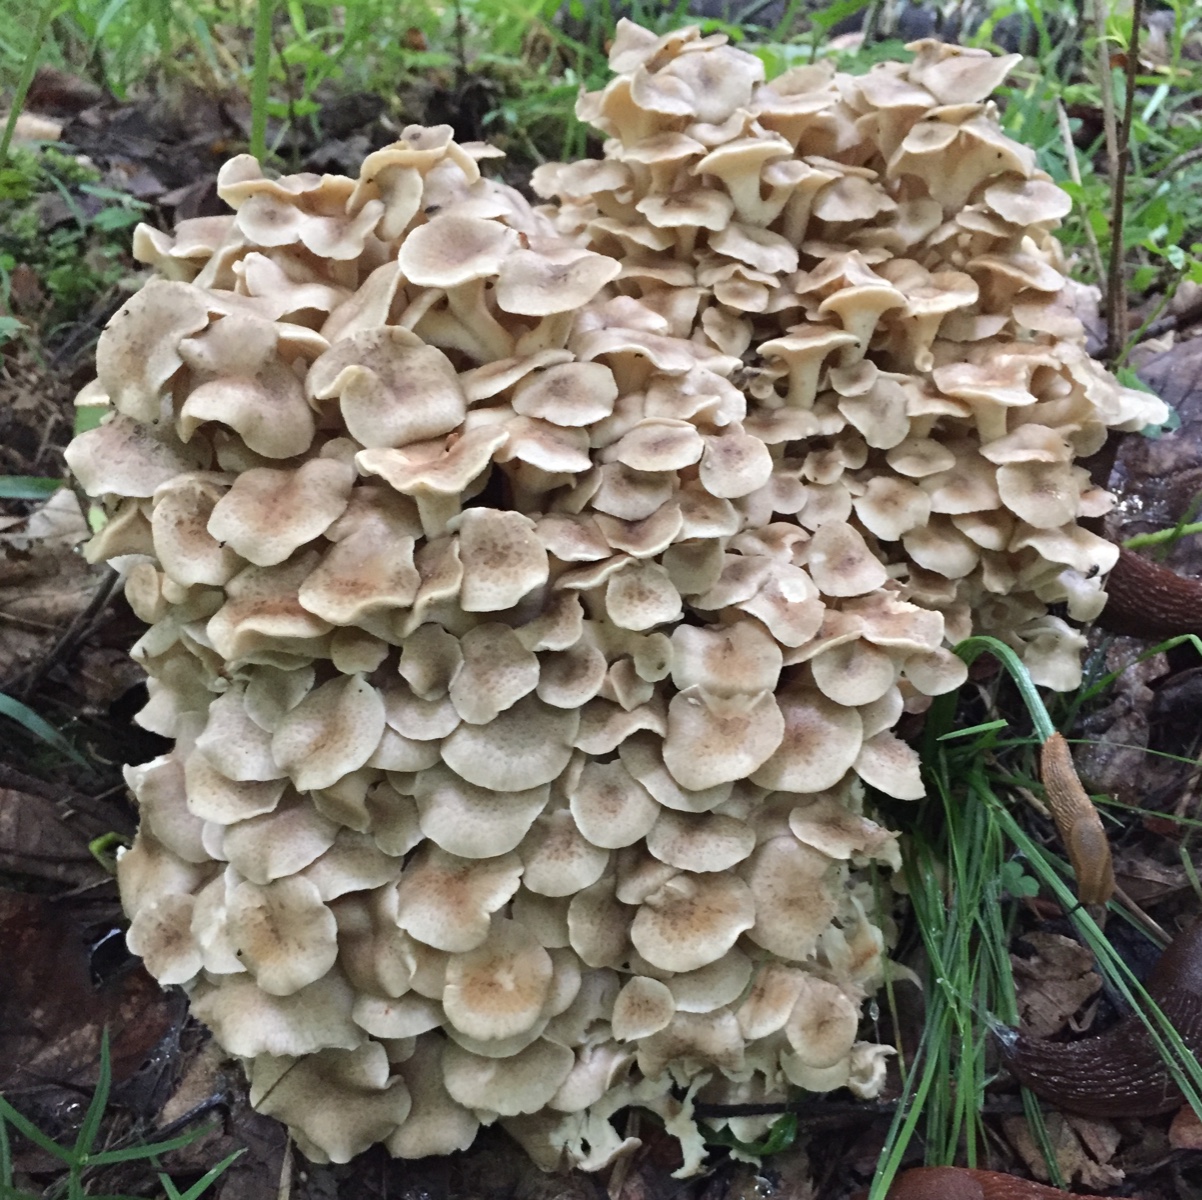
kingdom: Fungi
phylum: Basidiomycota
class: Agaricomycetes
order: Polyporales
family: Polyporaceae
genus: Polyporus
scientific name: Polyporus umbellatus
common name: skærmformet stilkporesvamp
